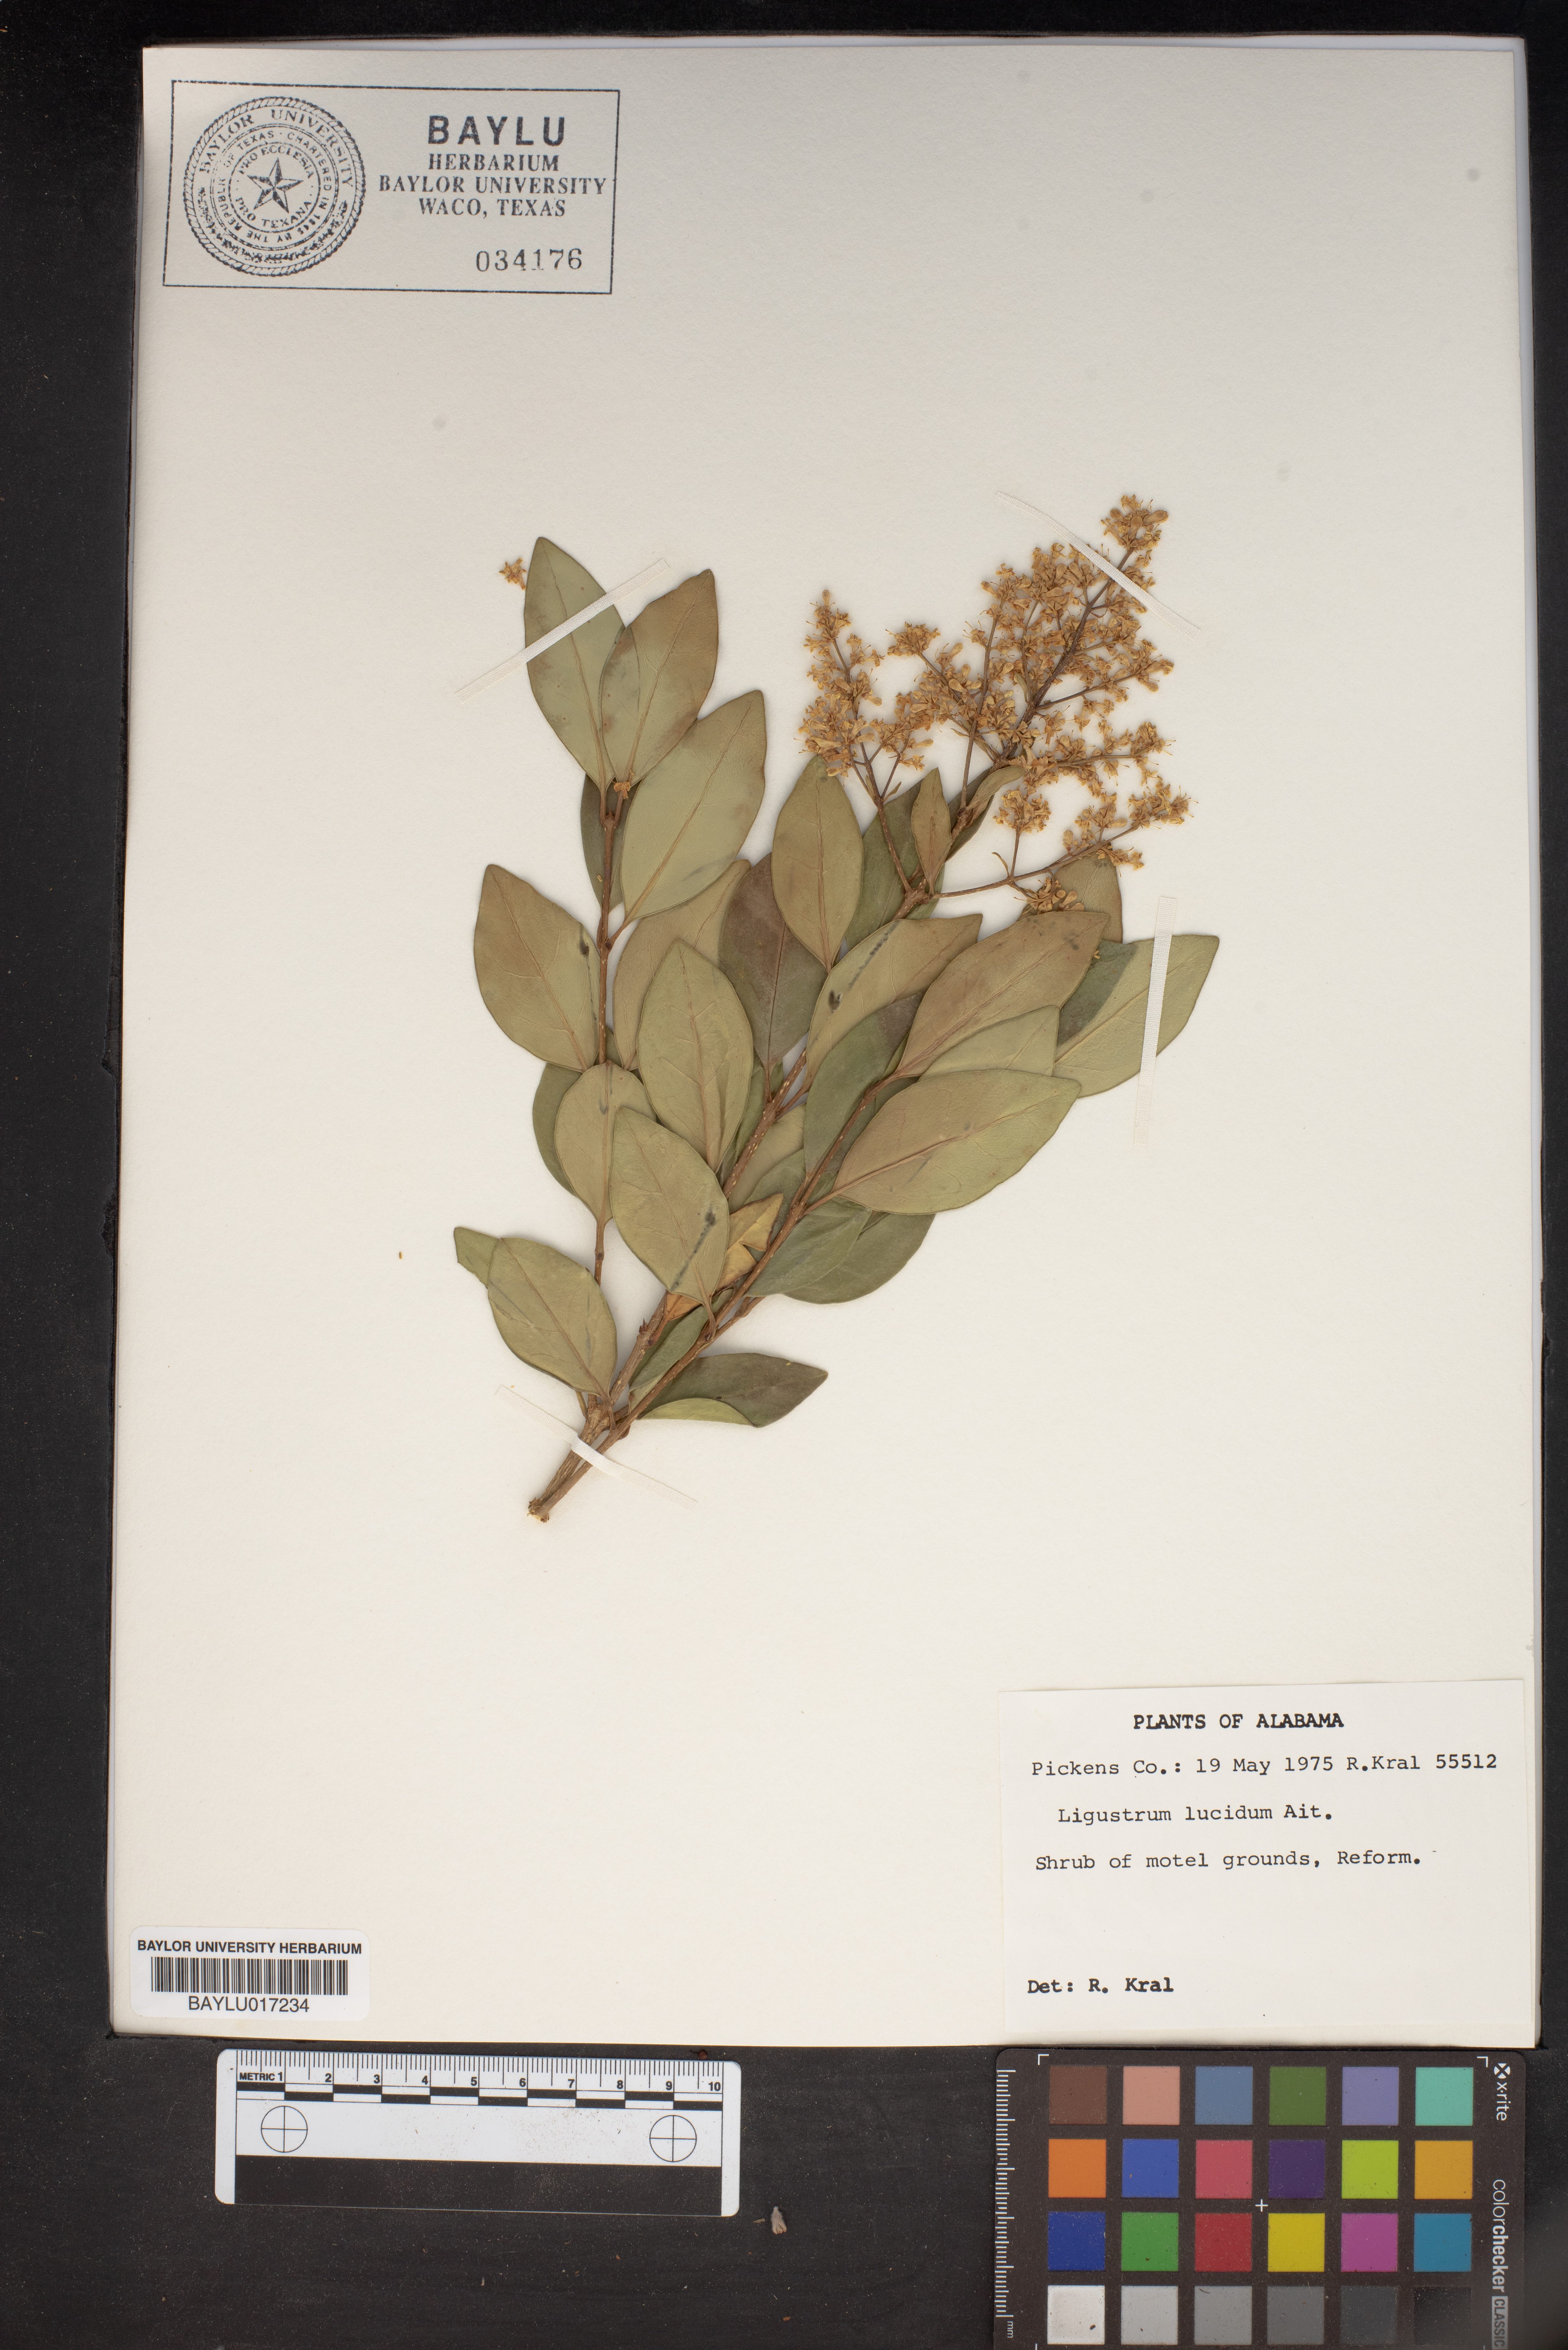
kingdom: Plantae
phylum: Tracheophyta
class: Magnoliopsida
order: Lamiales
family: Oleaceae
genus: Ligustrum
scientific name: Ligustrum lucidum
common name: Glossy privet
